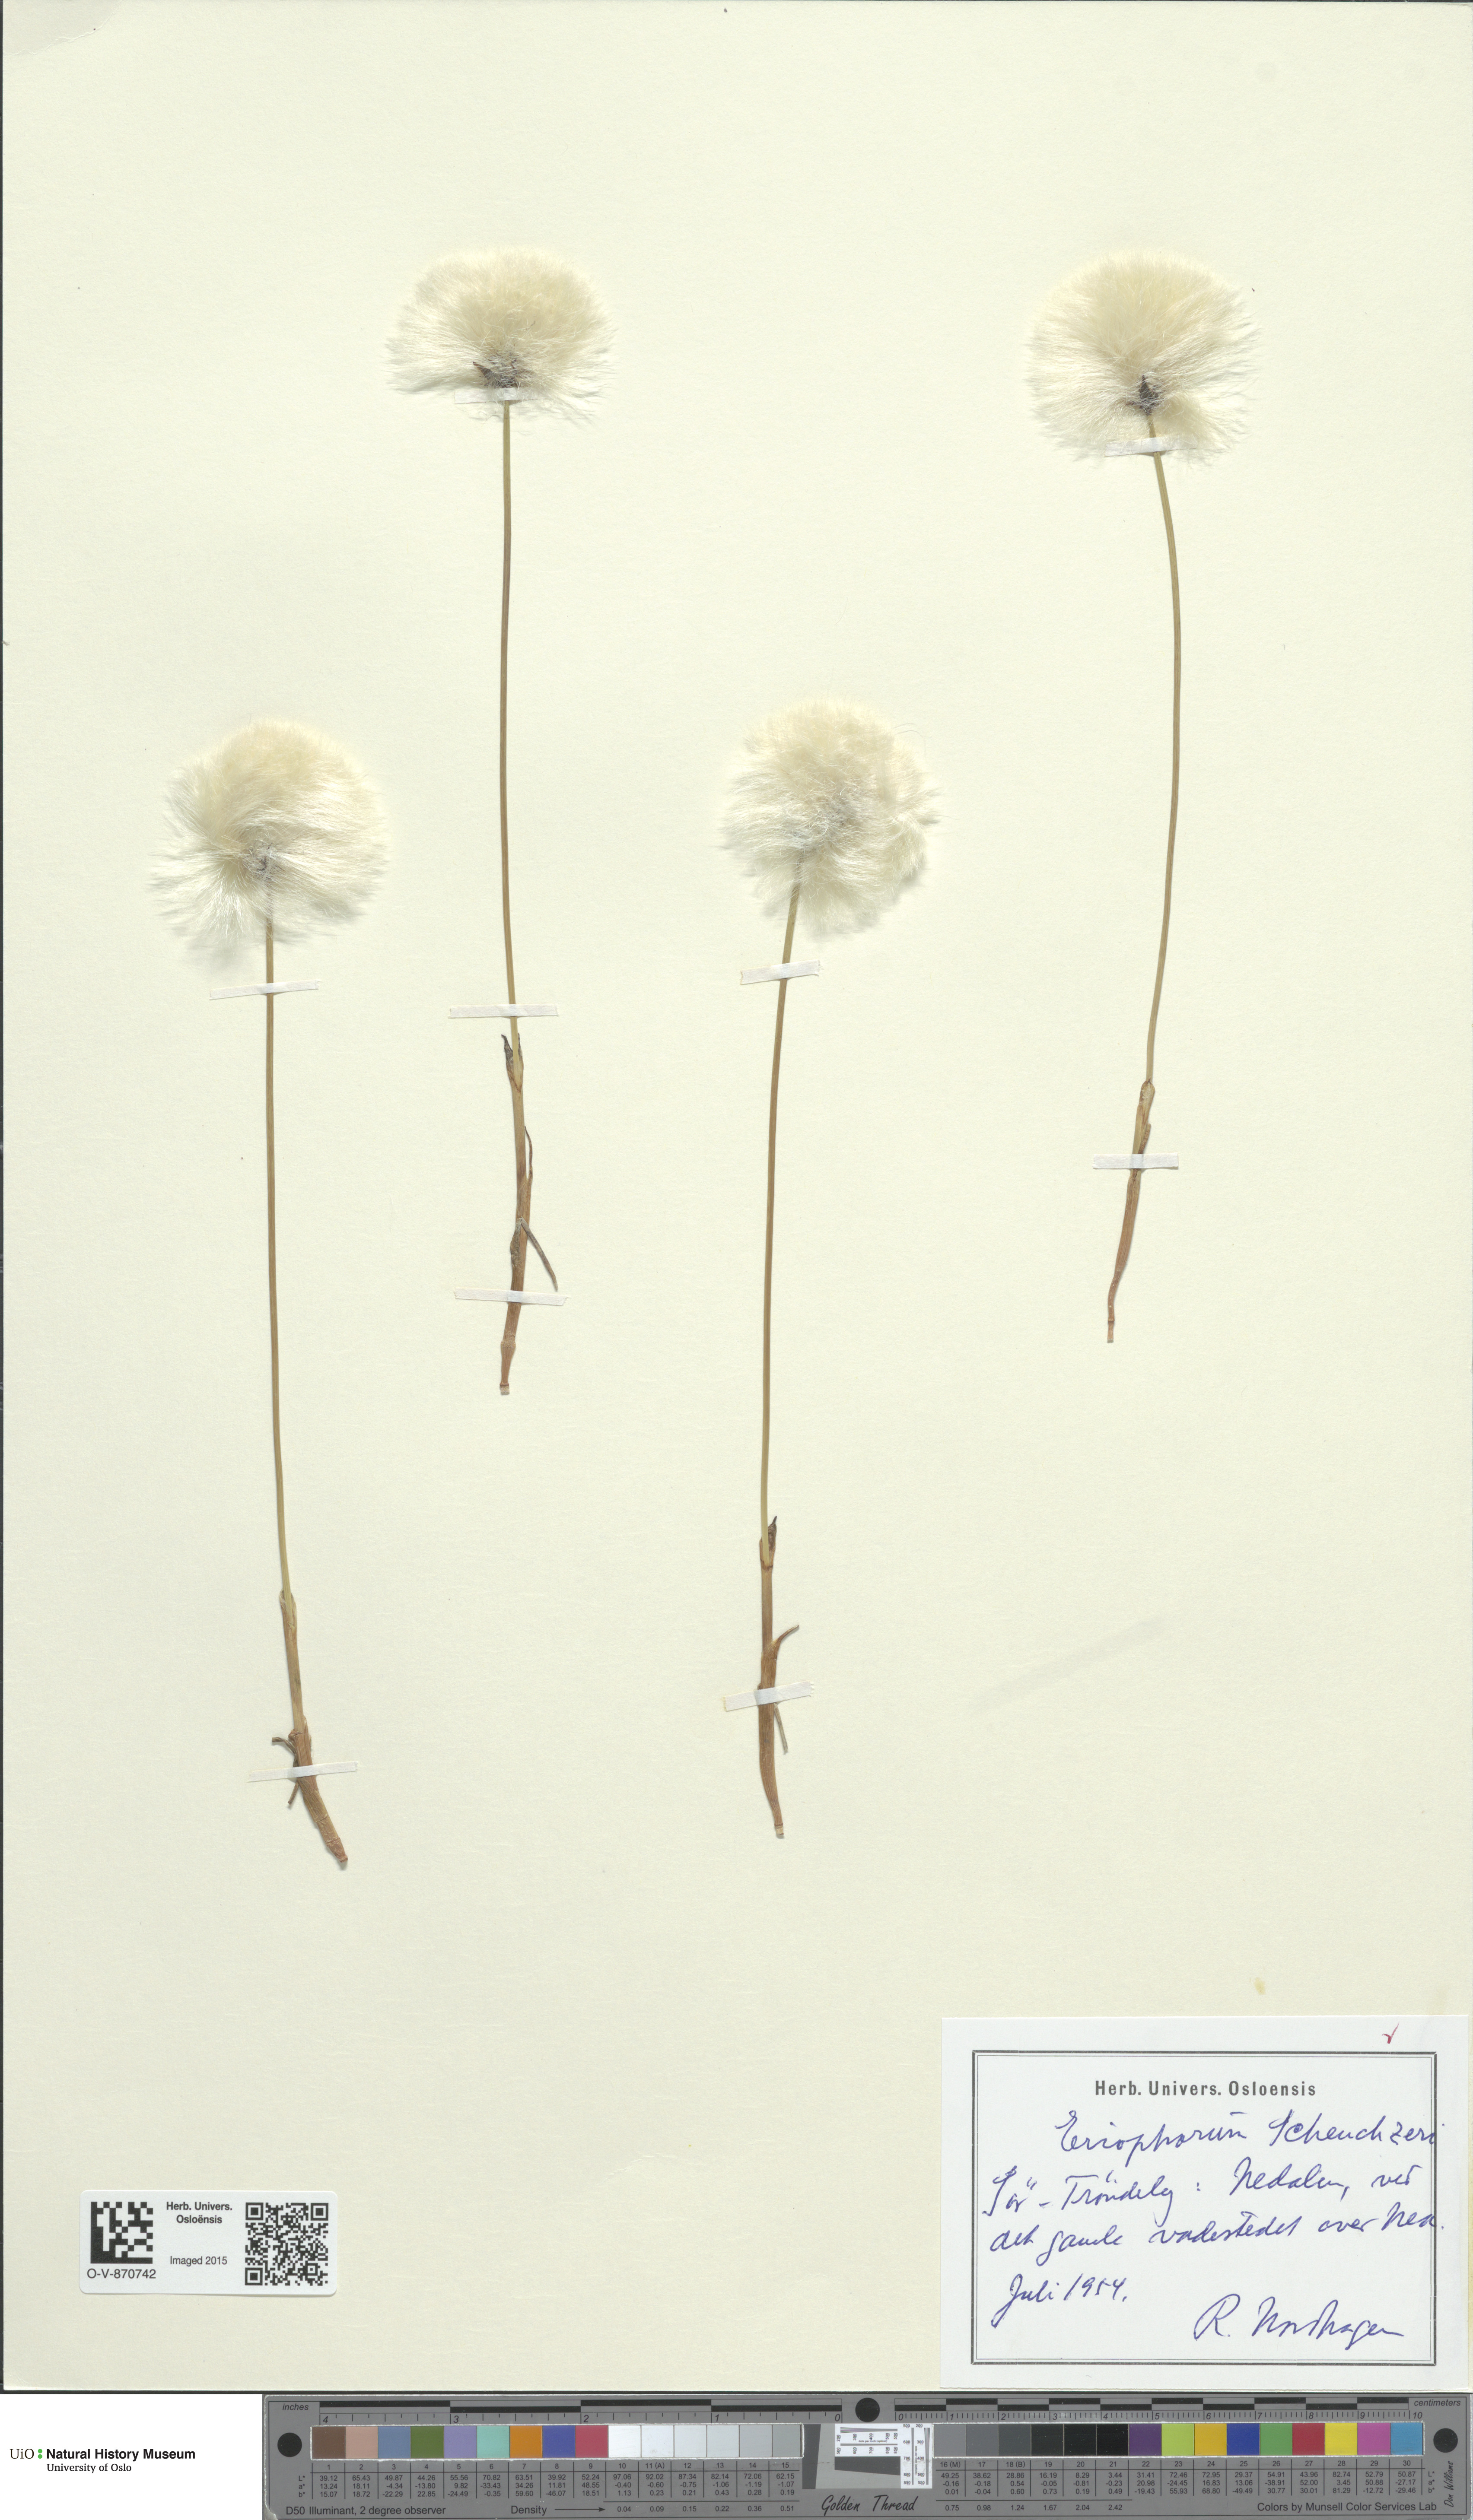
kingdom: Plantae
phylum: Tracheophyta
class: Liliopsida
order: Poales
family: Cyperaceae
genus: Eriophorum
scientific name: Eriophorum scheuchzeri
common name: Scheuchzer's cottongrass
